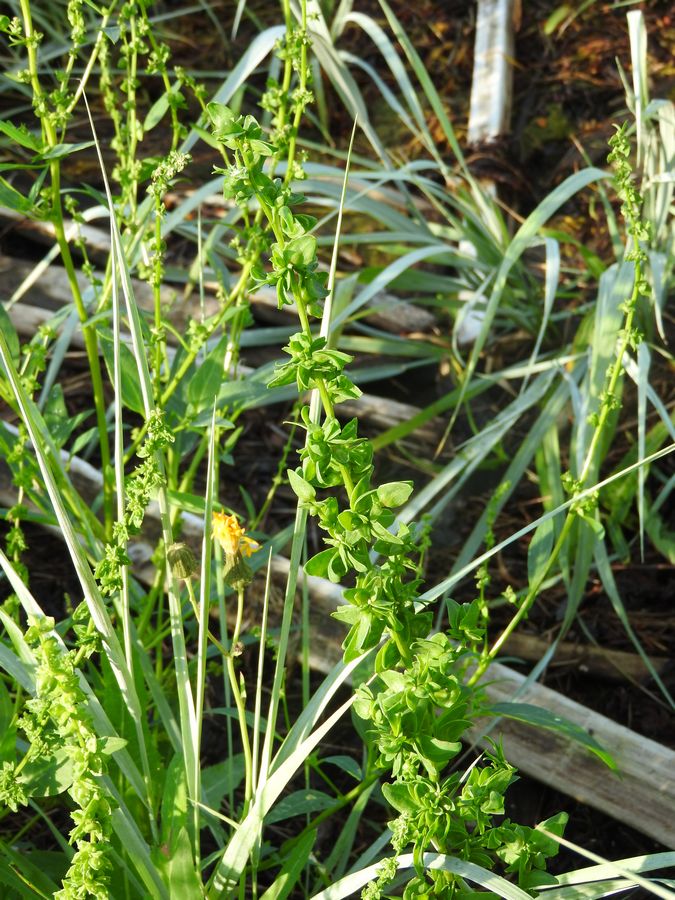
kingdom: Plantae
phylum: Tracheophyta
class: Magnoliopsida
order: Caryophyllales
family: Amaranthaceae
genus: Atriplex
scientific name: Atriplex praecox
